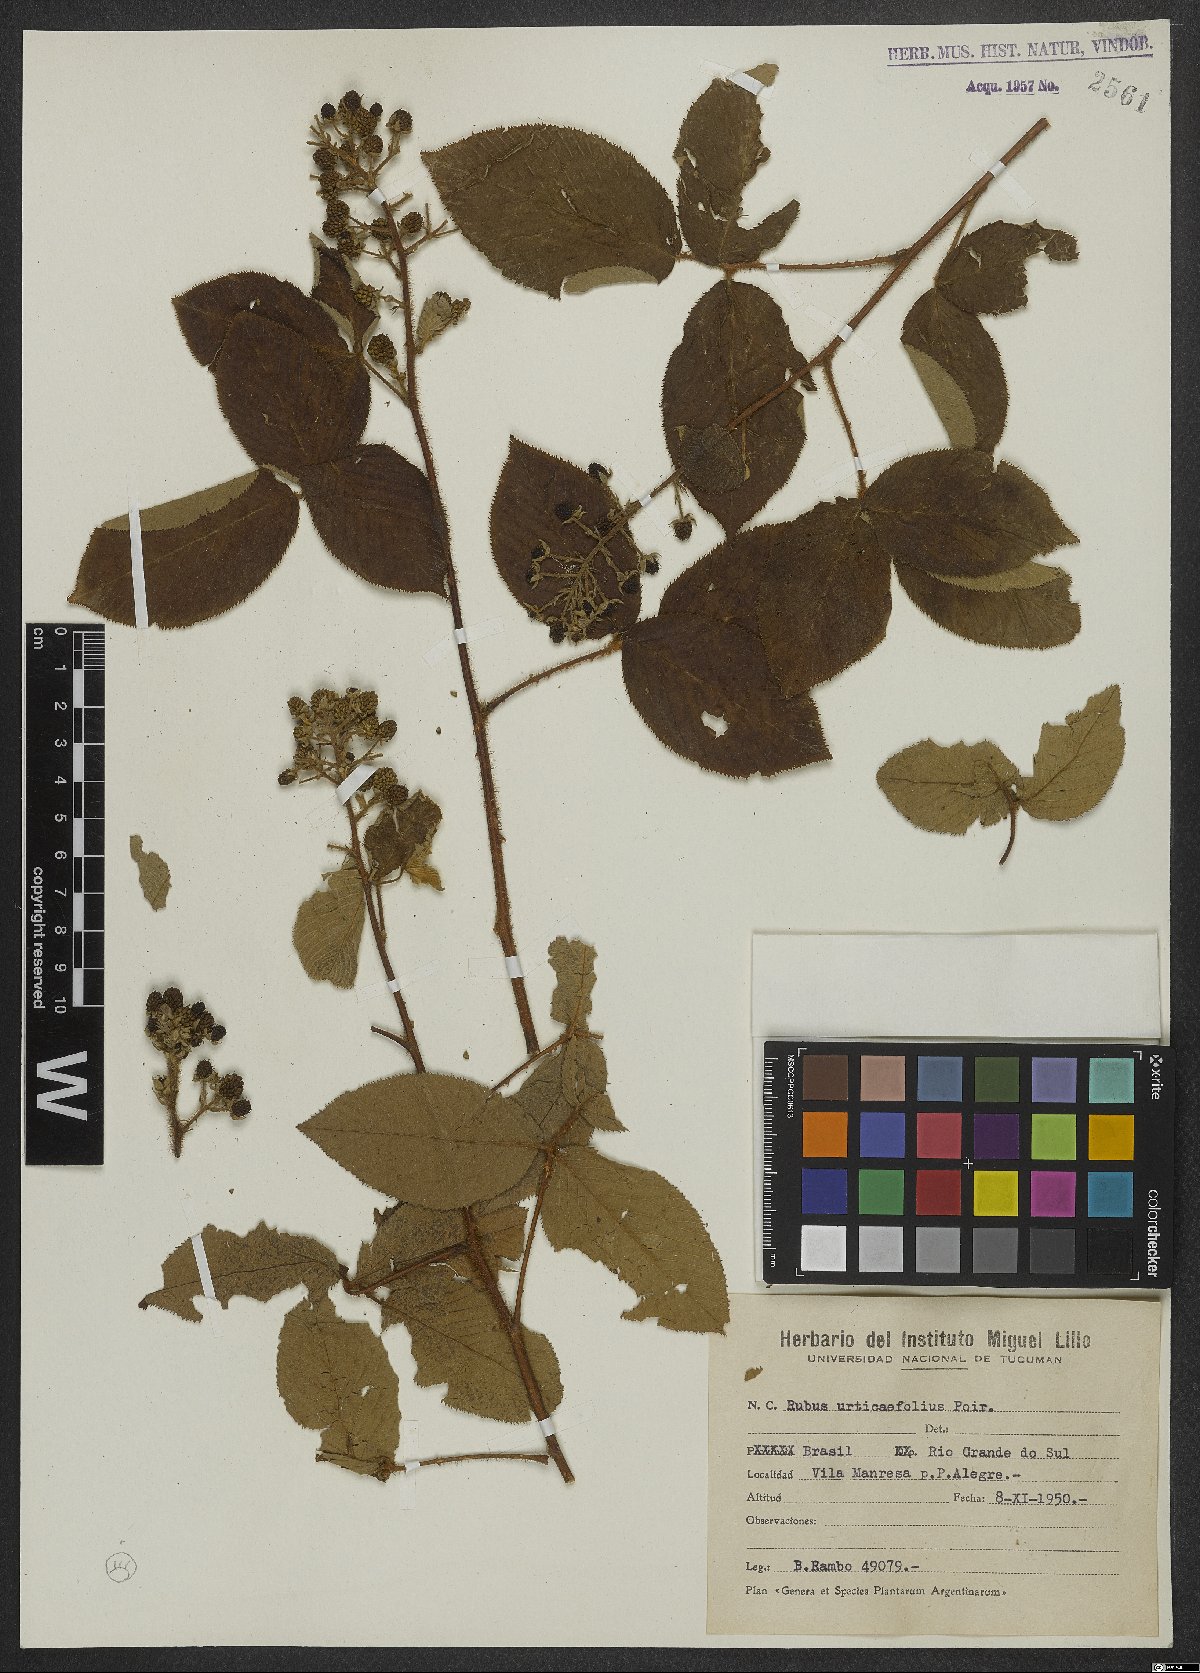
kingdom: Plantae
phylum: Tracheophyta
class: Magnoliopsida
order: Rosales
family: Rosaceae
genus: Rubus
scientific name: Rubus urticifolius
